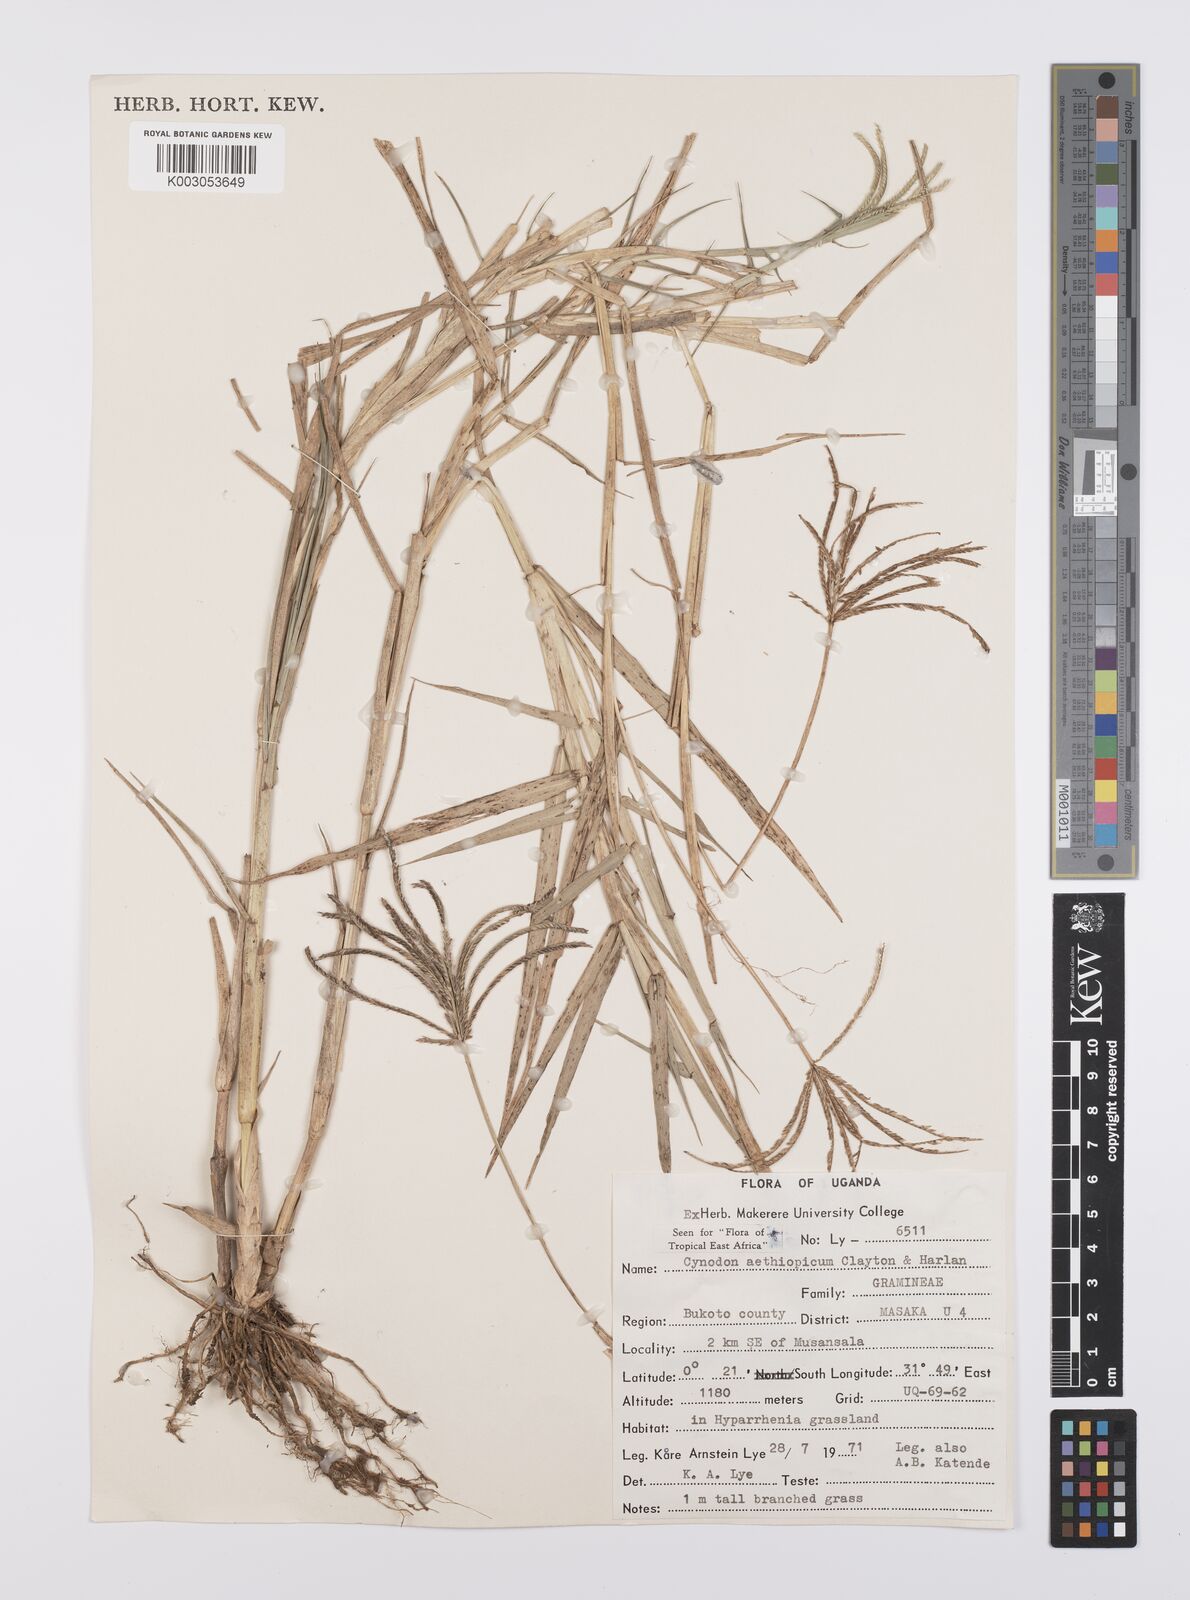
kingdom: Plantae
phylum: Tracheophyta
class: Liliopsida
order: Poales
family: Poaceae
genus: Cynodon
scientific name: Cynodon aethiopicus
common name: Ethiopian dogstooth grass
